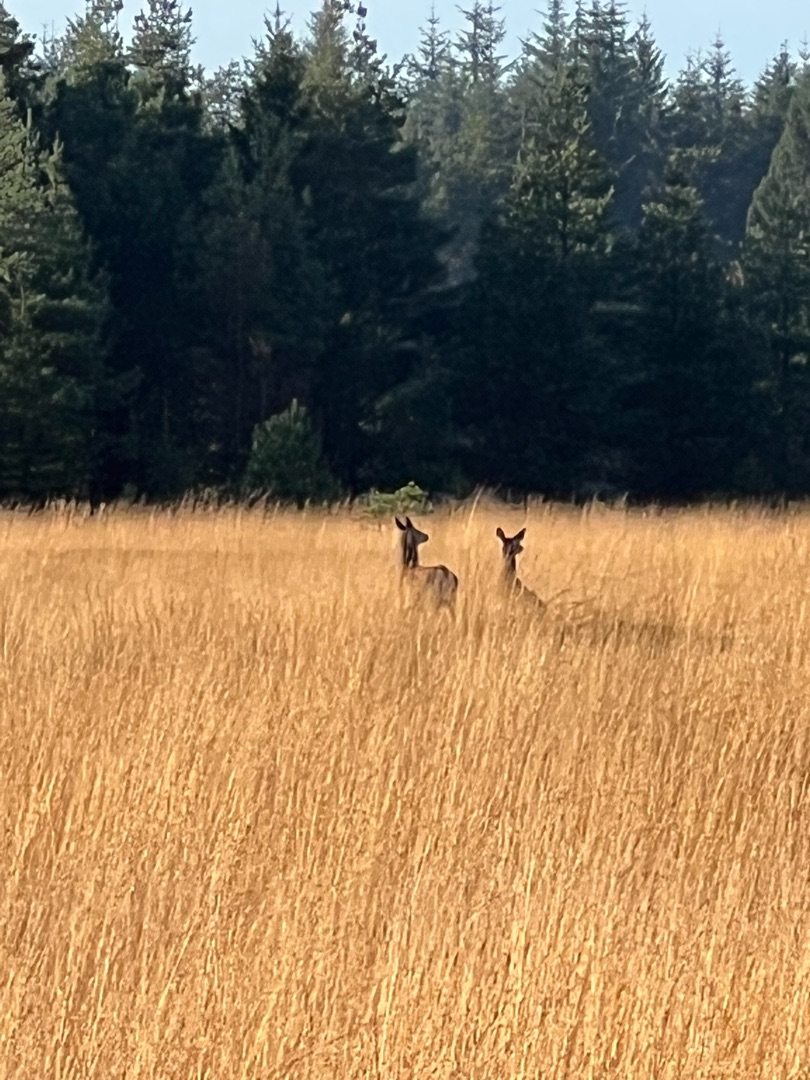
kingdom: Animalia
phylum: Chordata
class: Mammalia
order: Artiodactyla
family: Cervidae
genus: Cervus
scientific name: Cervus elaphus
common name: Krondyr
